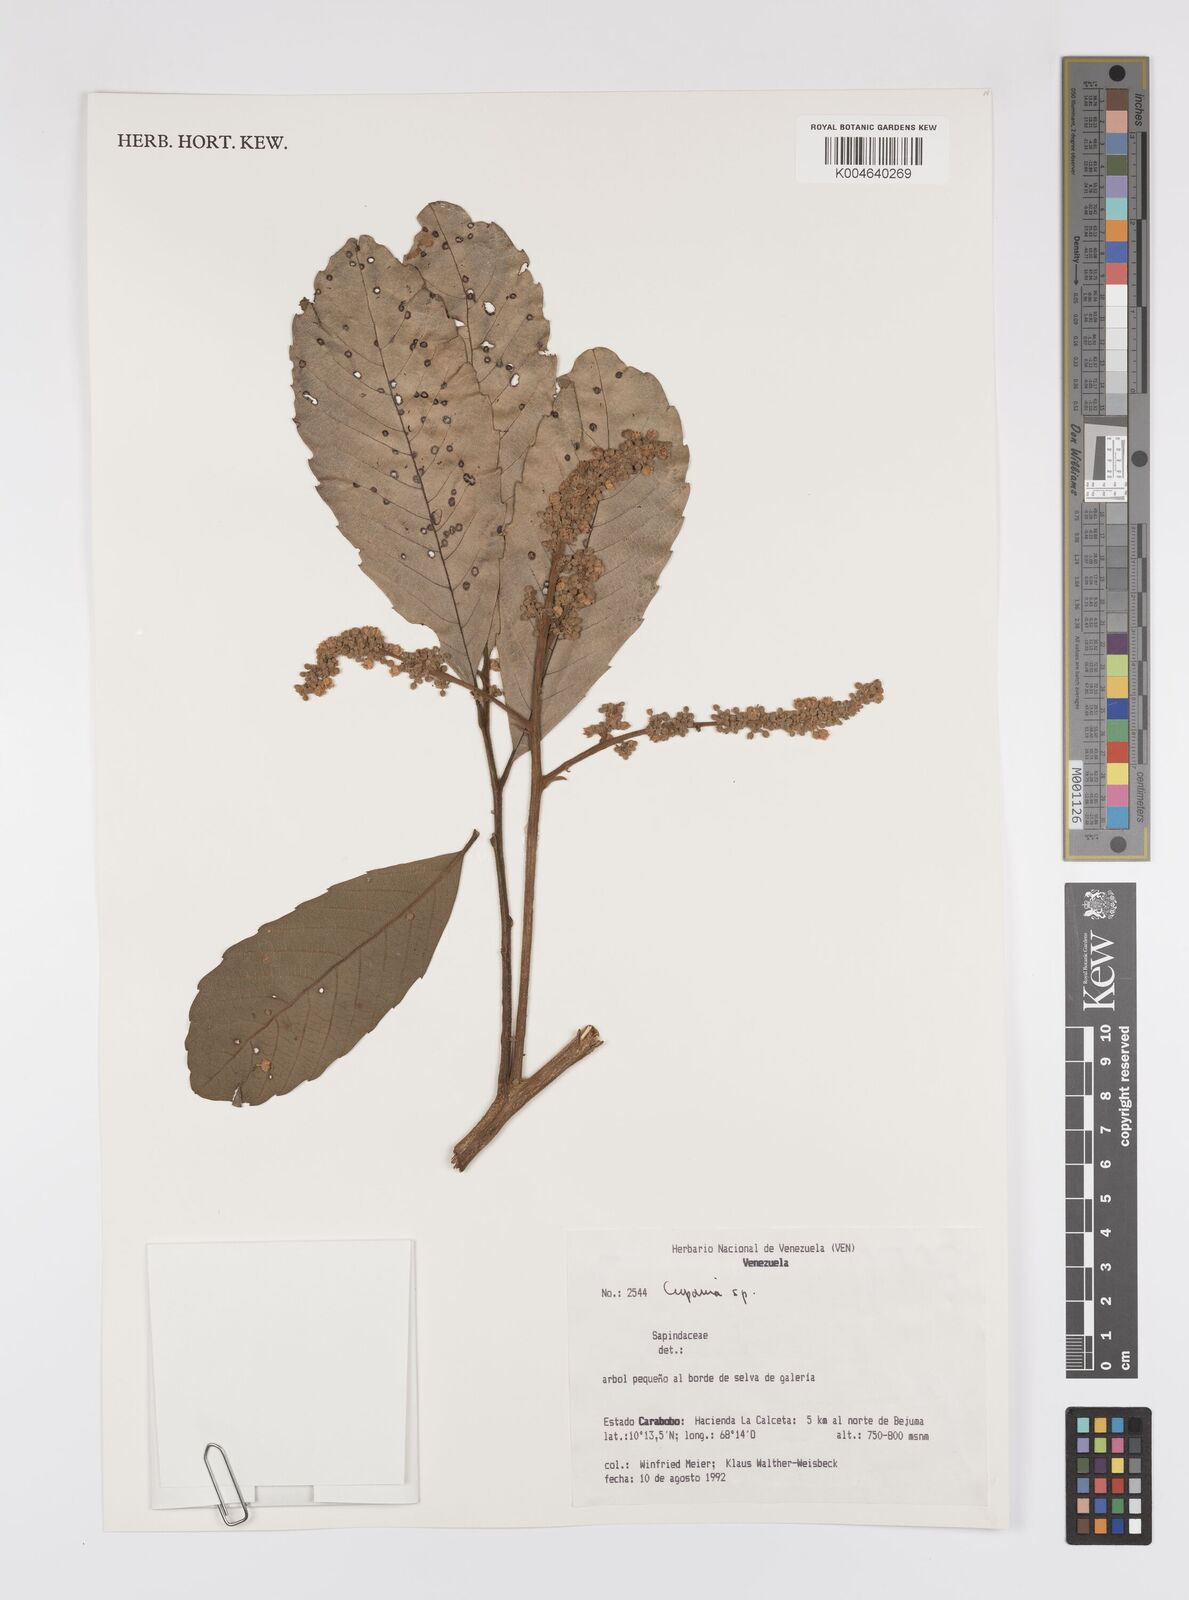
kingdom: Plantae
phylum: Tracheophyta
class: Magnoliopsida
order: Sapindales
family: Sapindaceae
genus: Cupania
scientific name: Cupania
